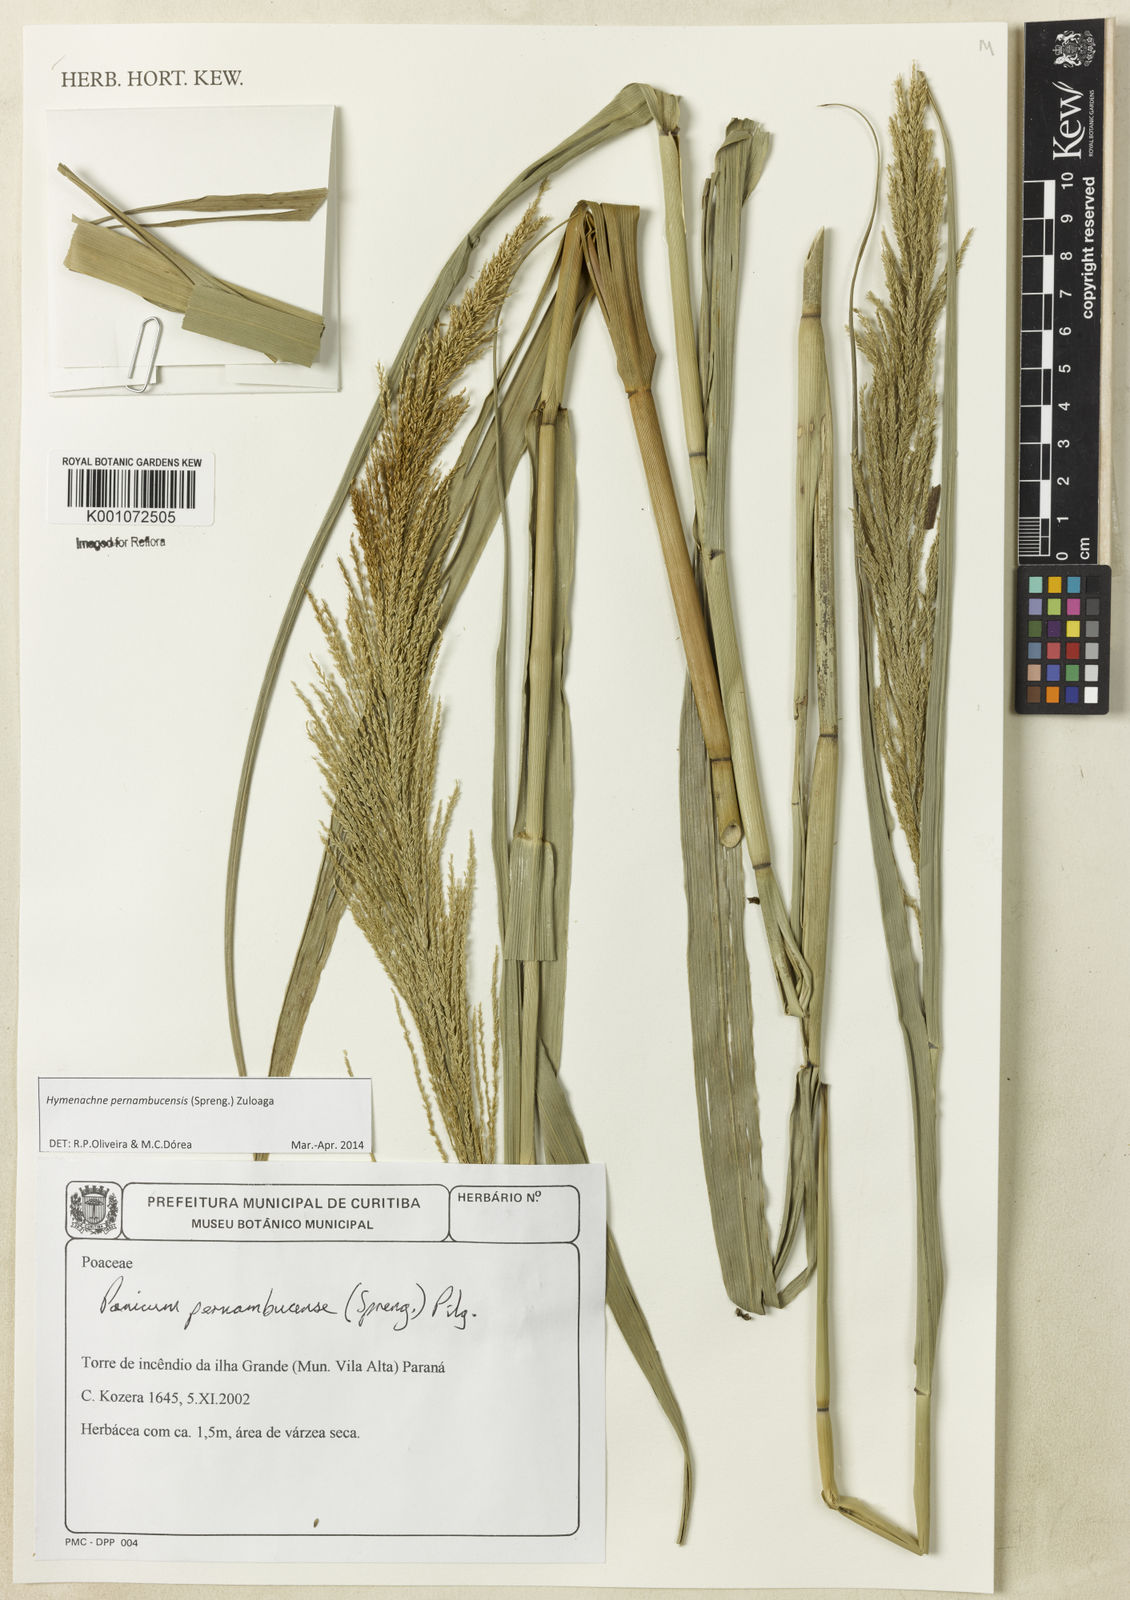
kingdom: Plantae
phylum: Tracheophyta
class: Liliopsida
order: Poales
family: Poaceae
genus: Hymenachne
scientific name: Hymenachne pernambucensis
